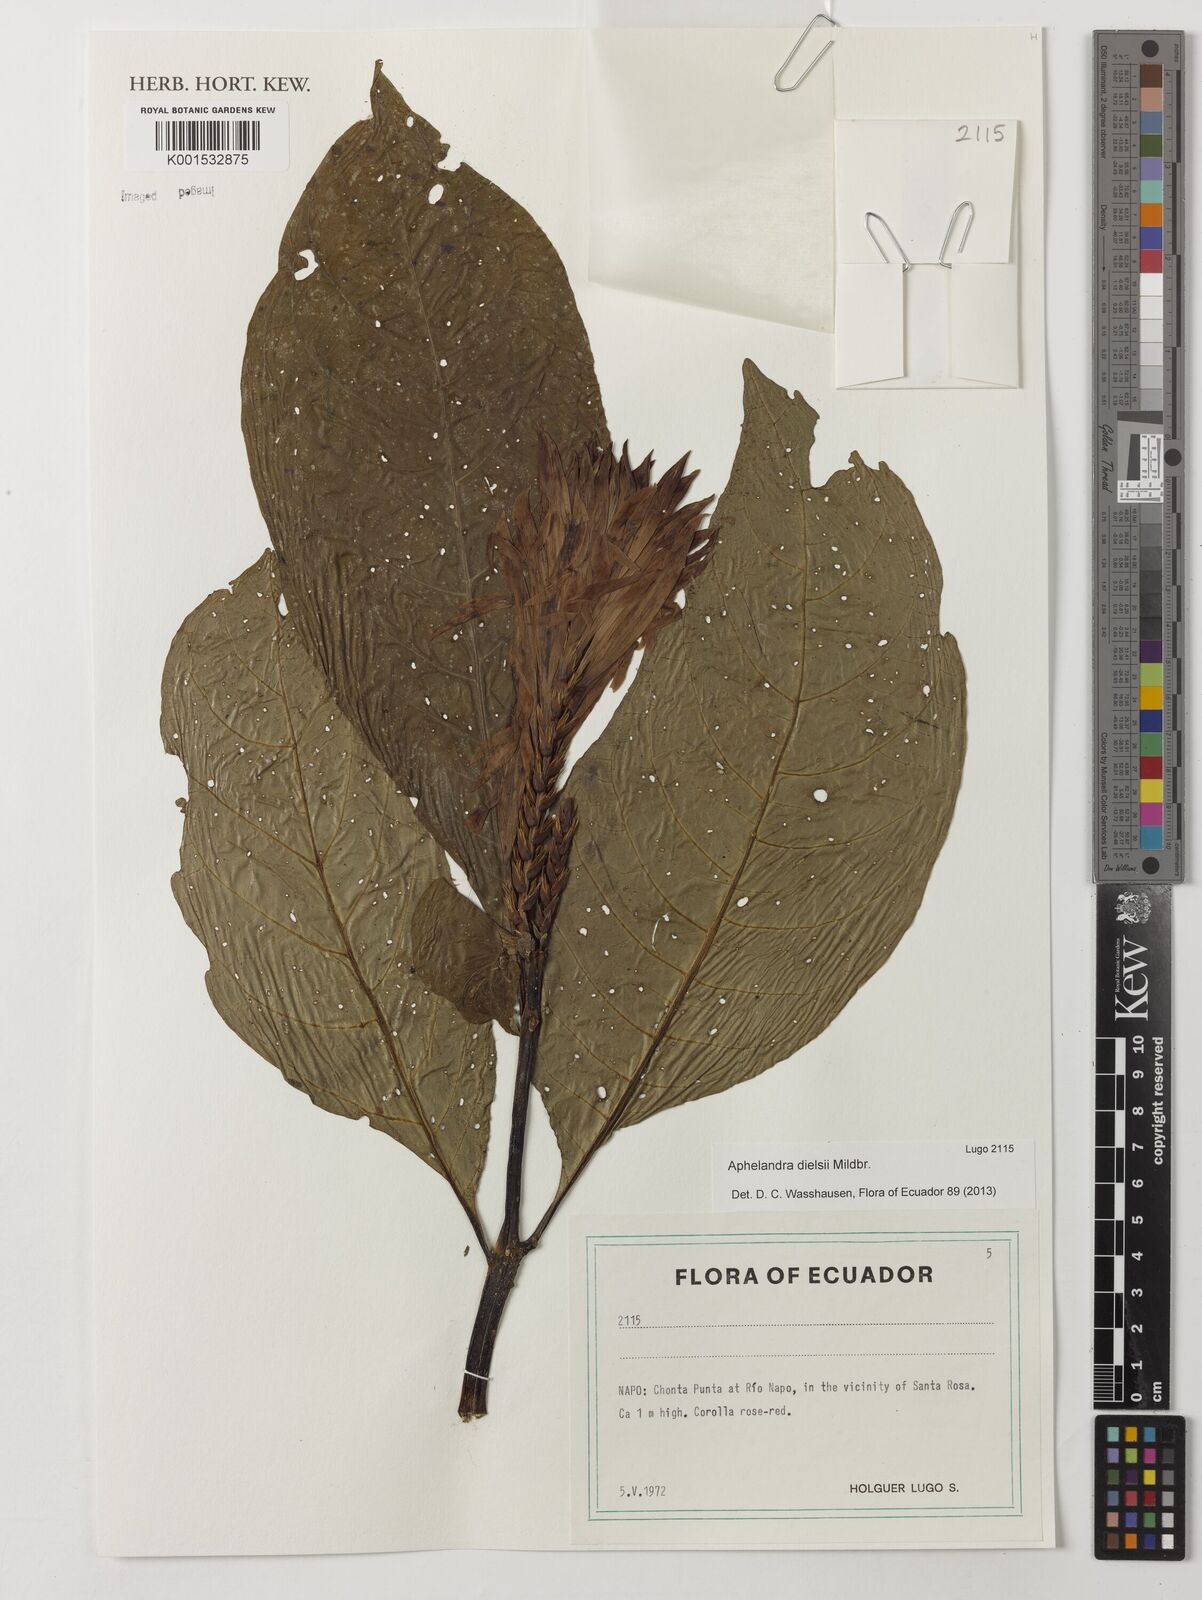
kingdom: Plantae
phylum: Tracheophyta
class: Magnoliopsida
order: Lamiales
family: Acanthaceae
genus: Aphelandra
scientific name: Aphelandra dielsii
